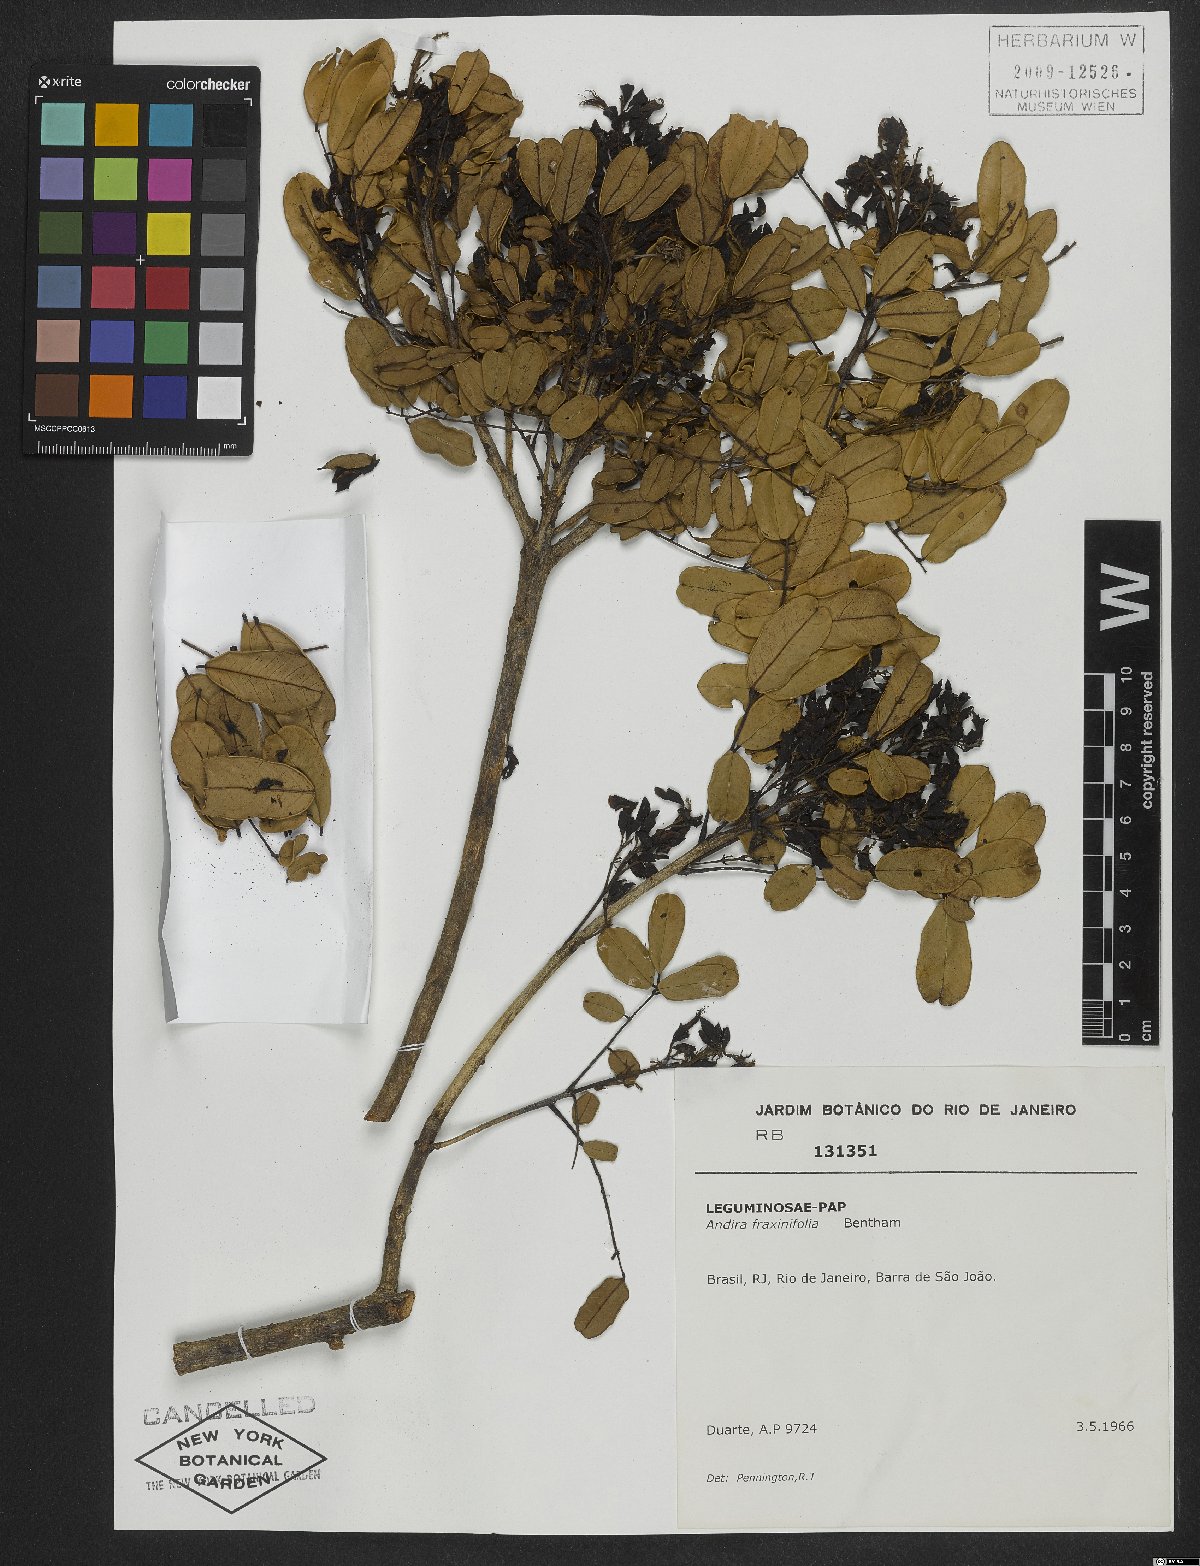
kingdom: Plantae
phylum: Tracheophyta
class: Magnoliopsida
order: Fabales
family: Fabaceae
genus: Andira
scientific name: Andira fraxinifolia
